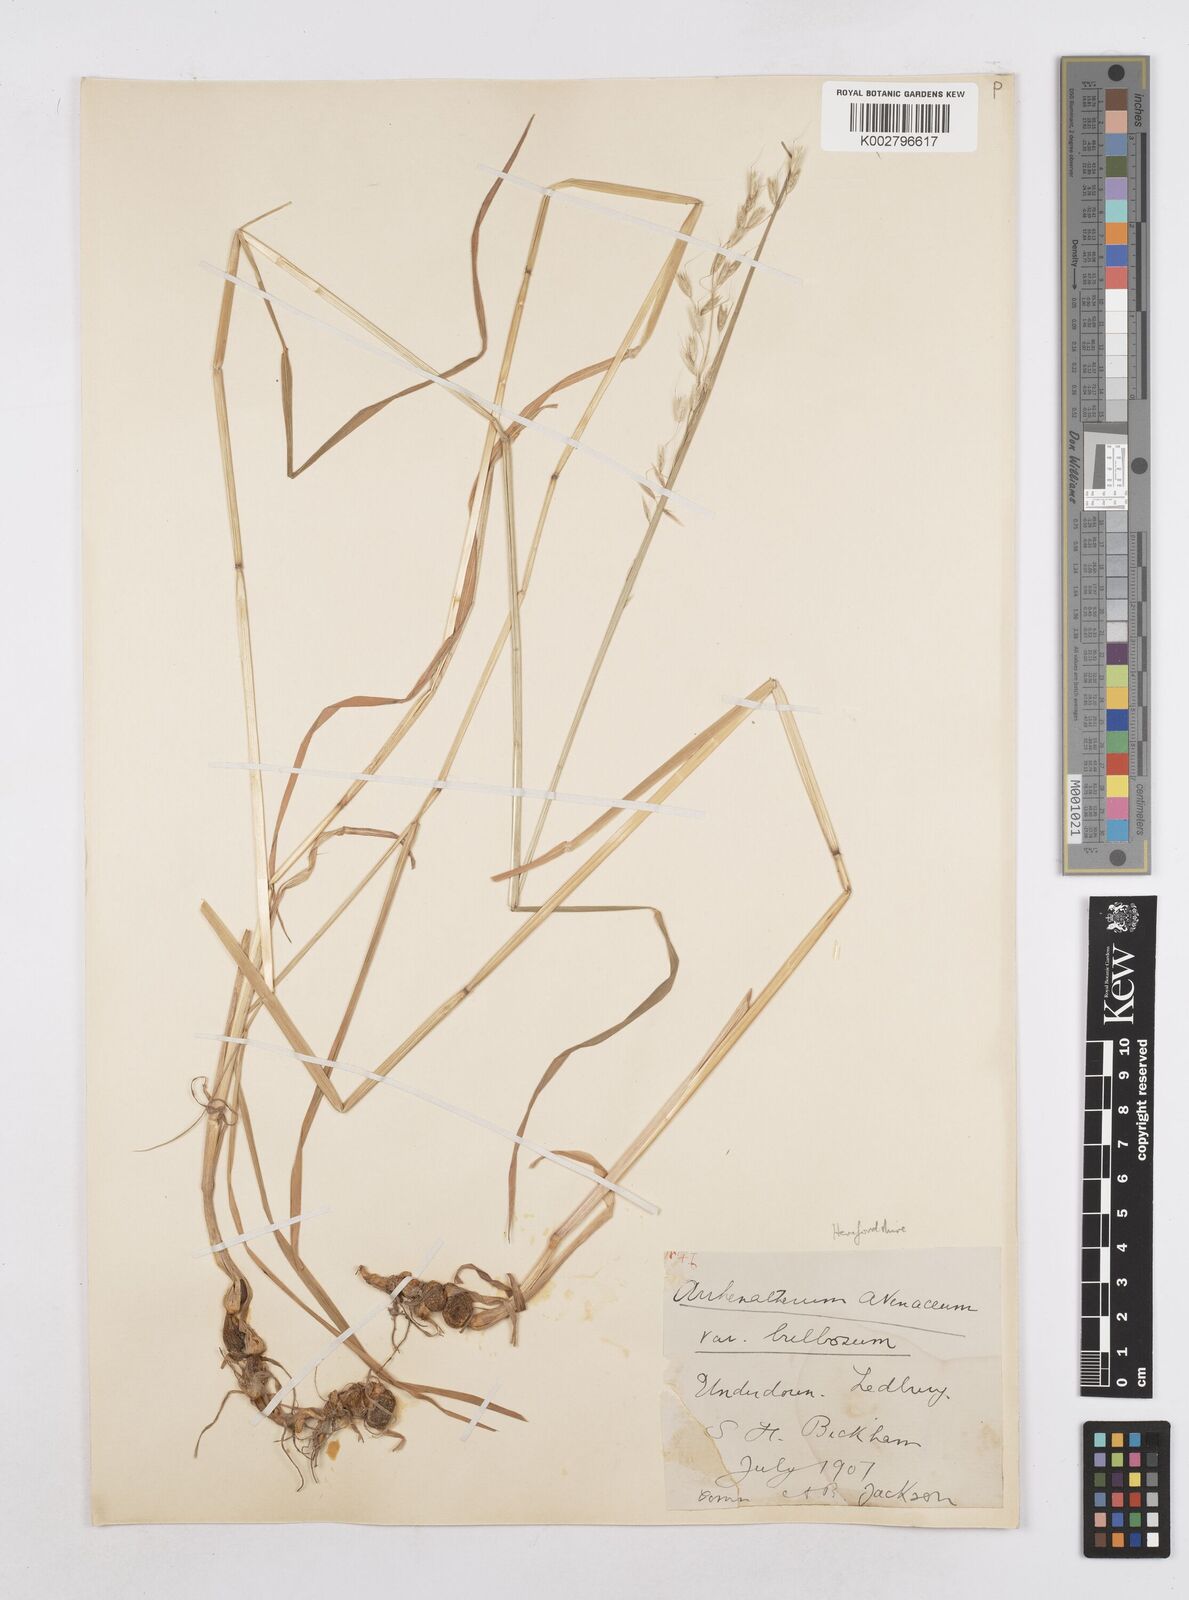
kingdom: Plantae
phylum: Tracheophyta
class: Liliopsida
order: Poales
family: Poaceae
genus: Arrhenatherum
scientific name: Arrhenatherum elatius
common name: Tall oatgrass
